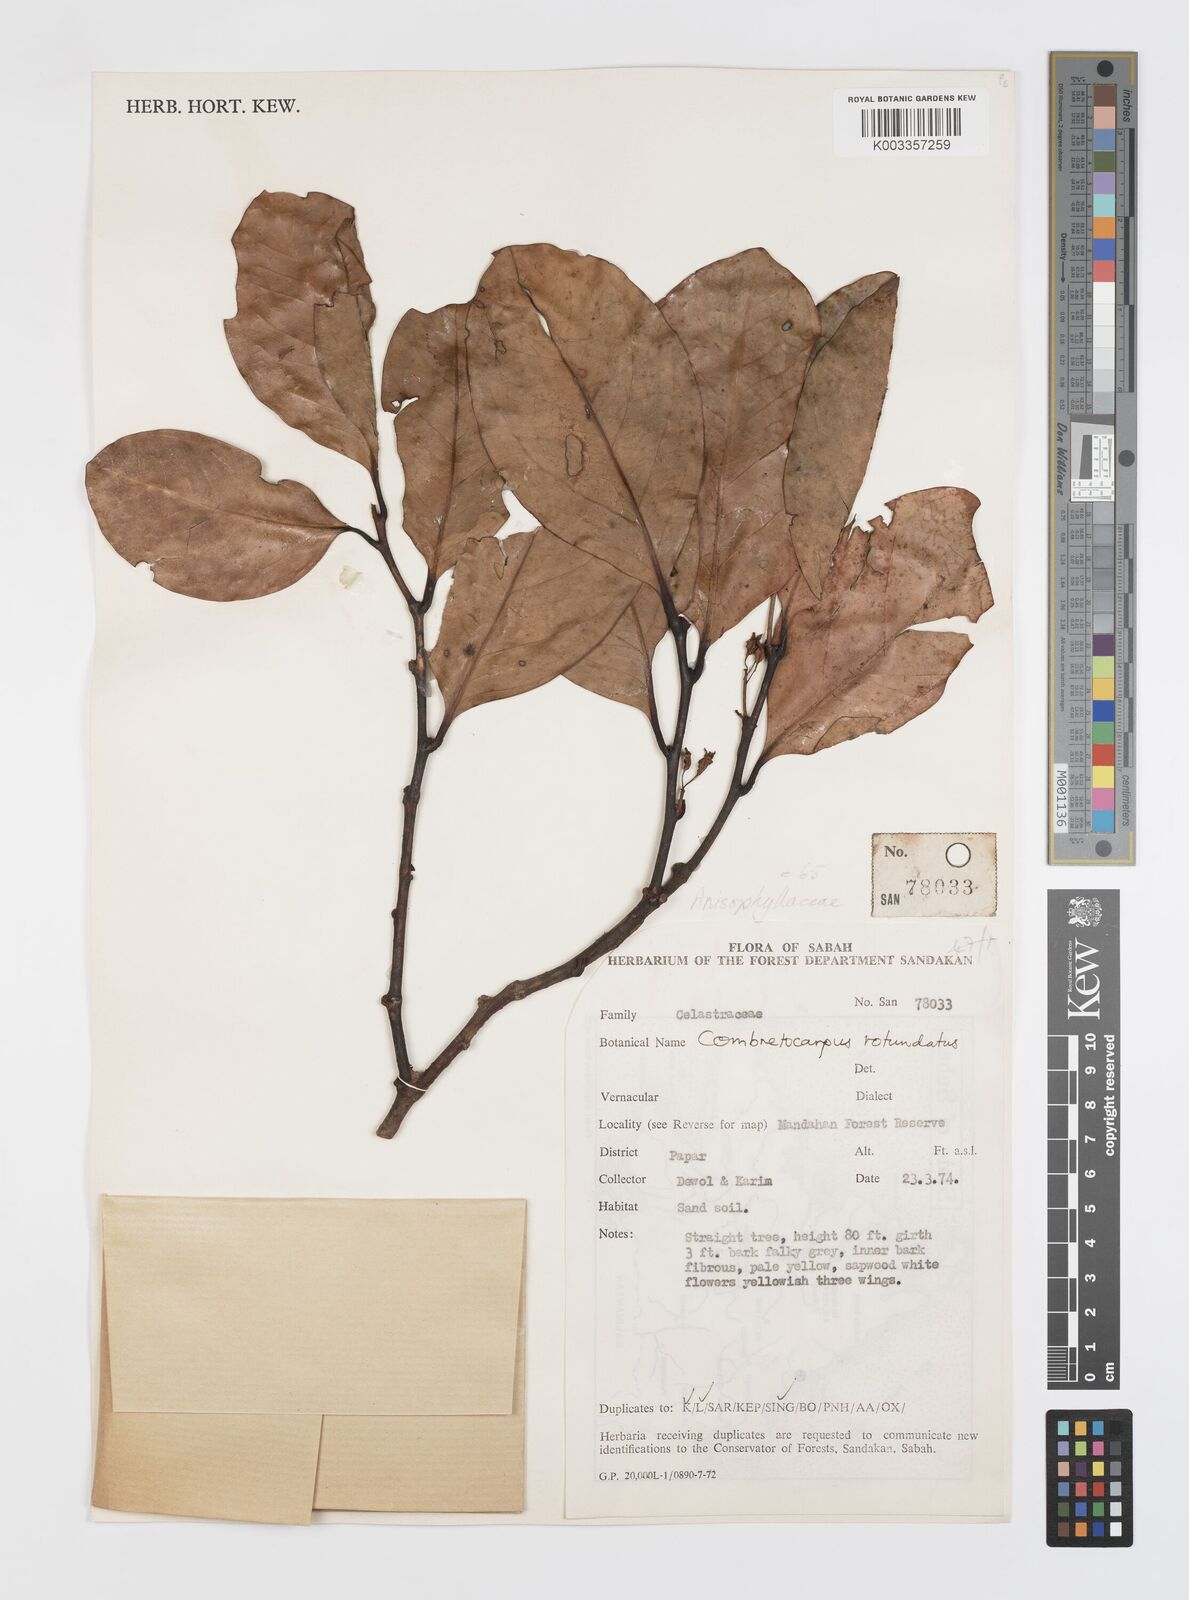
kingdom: Plantae
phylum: Tracheophyta
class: Magnoliopsida
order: Cucurbitales
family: Anisophylleaceae
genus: Combretocarpus
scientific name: Combretocarpus rotundatus
